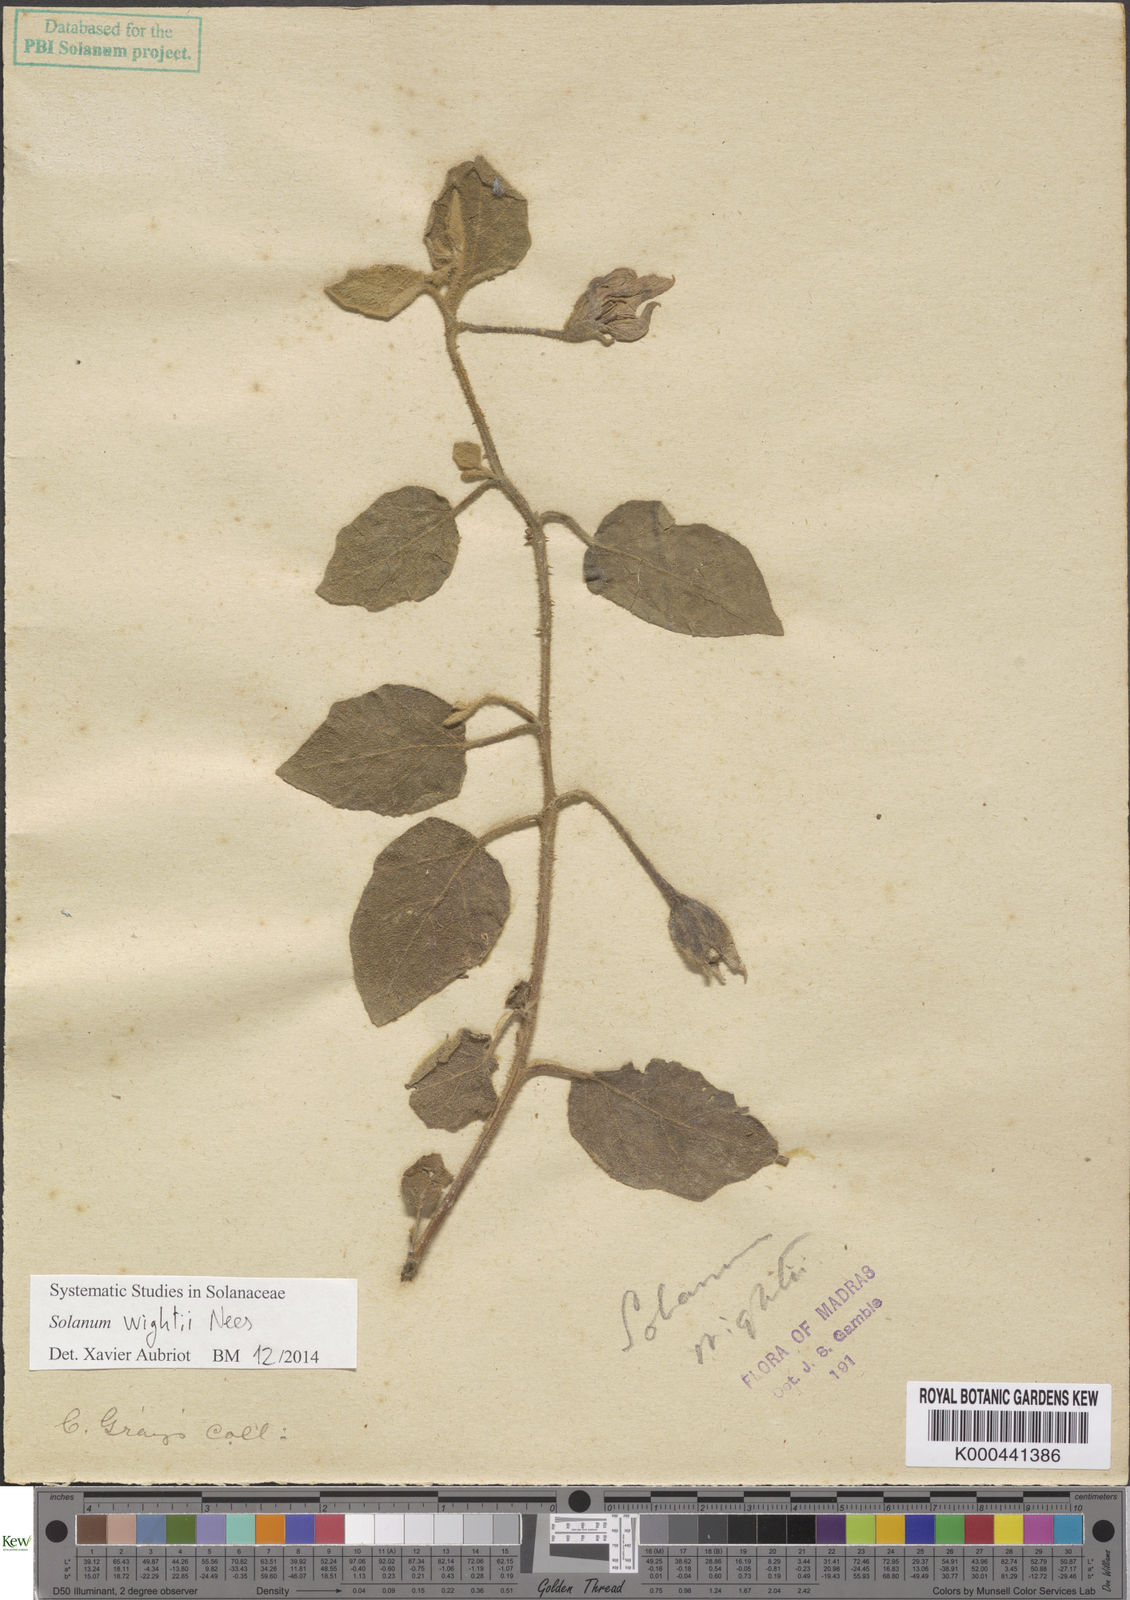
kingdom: Plantae
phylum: Tracheophyta
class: Magnoliopsida
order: Solanales
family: Solanaceae
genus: Solanum
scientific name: Solanum wightii
